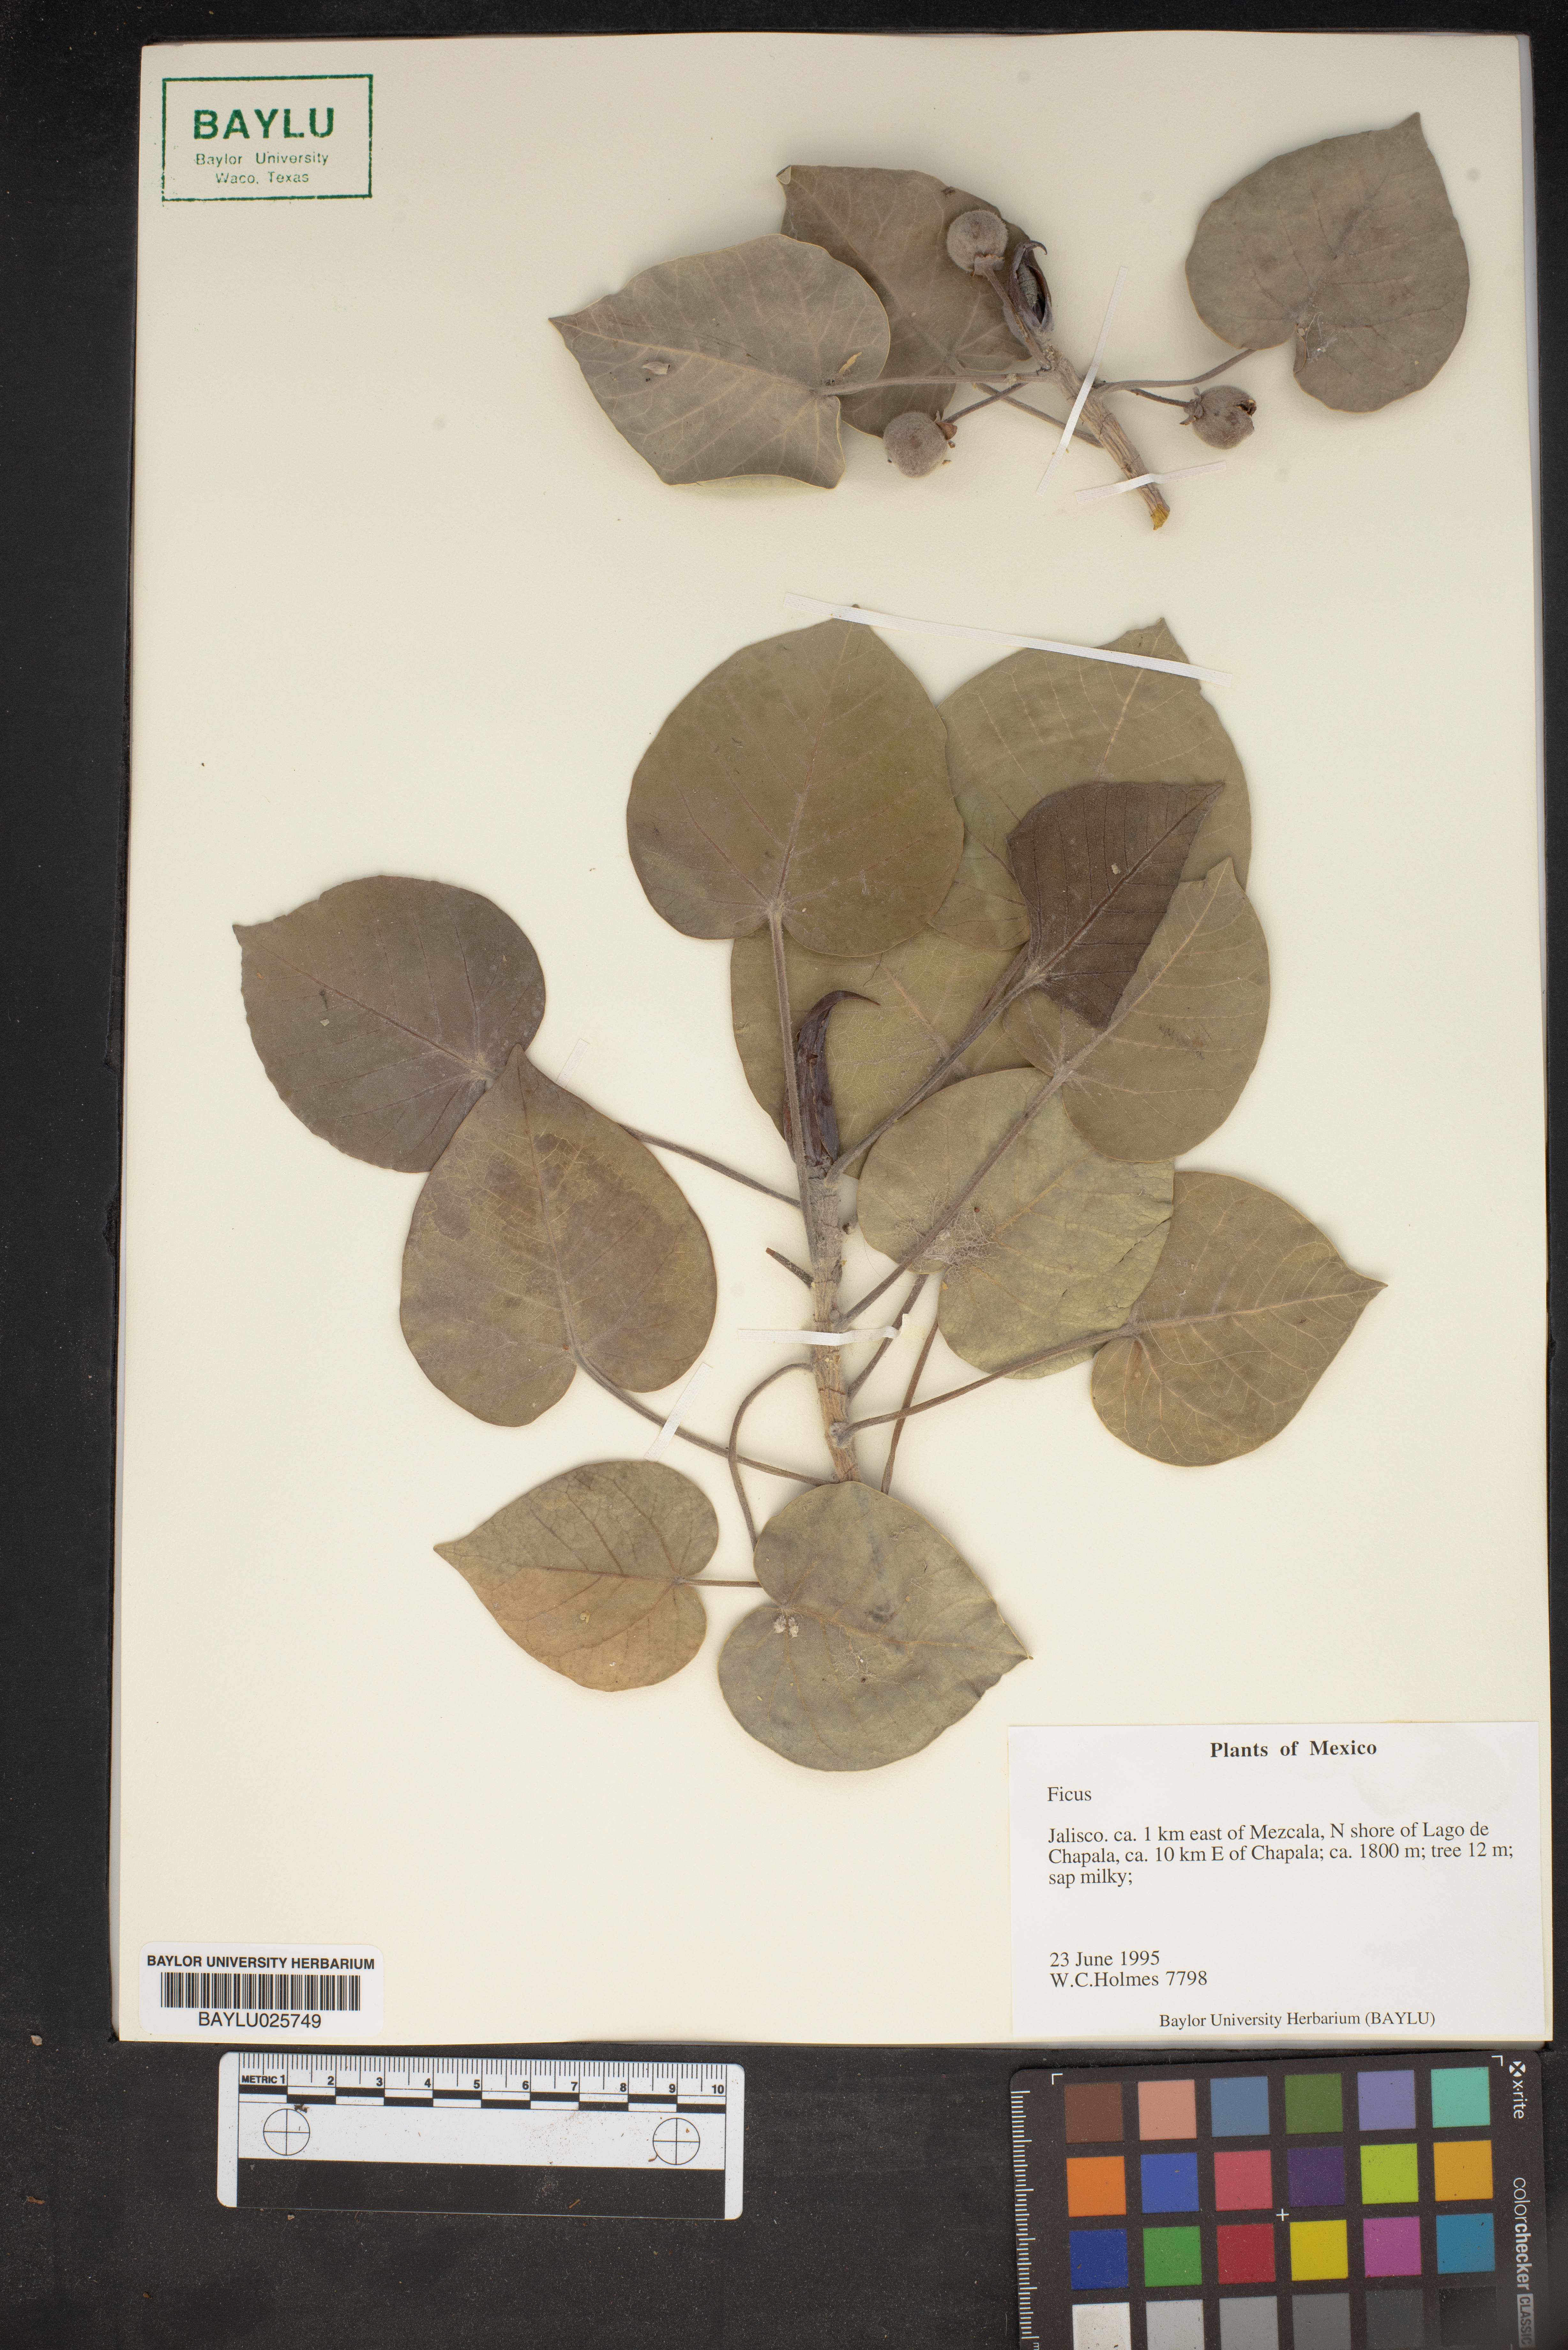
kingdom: Plantae
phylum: Tracheophyta
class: Magnoliopsida
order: Rosales
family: Moraceae
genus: Ficus
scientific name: Ficus
